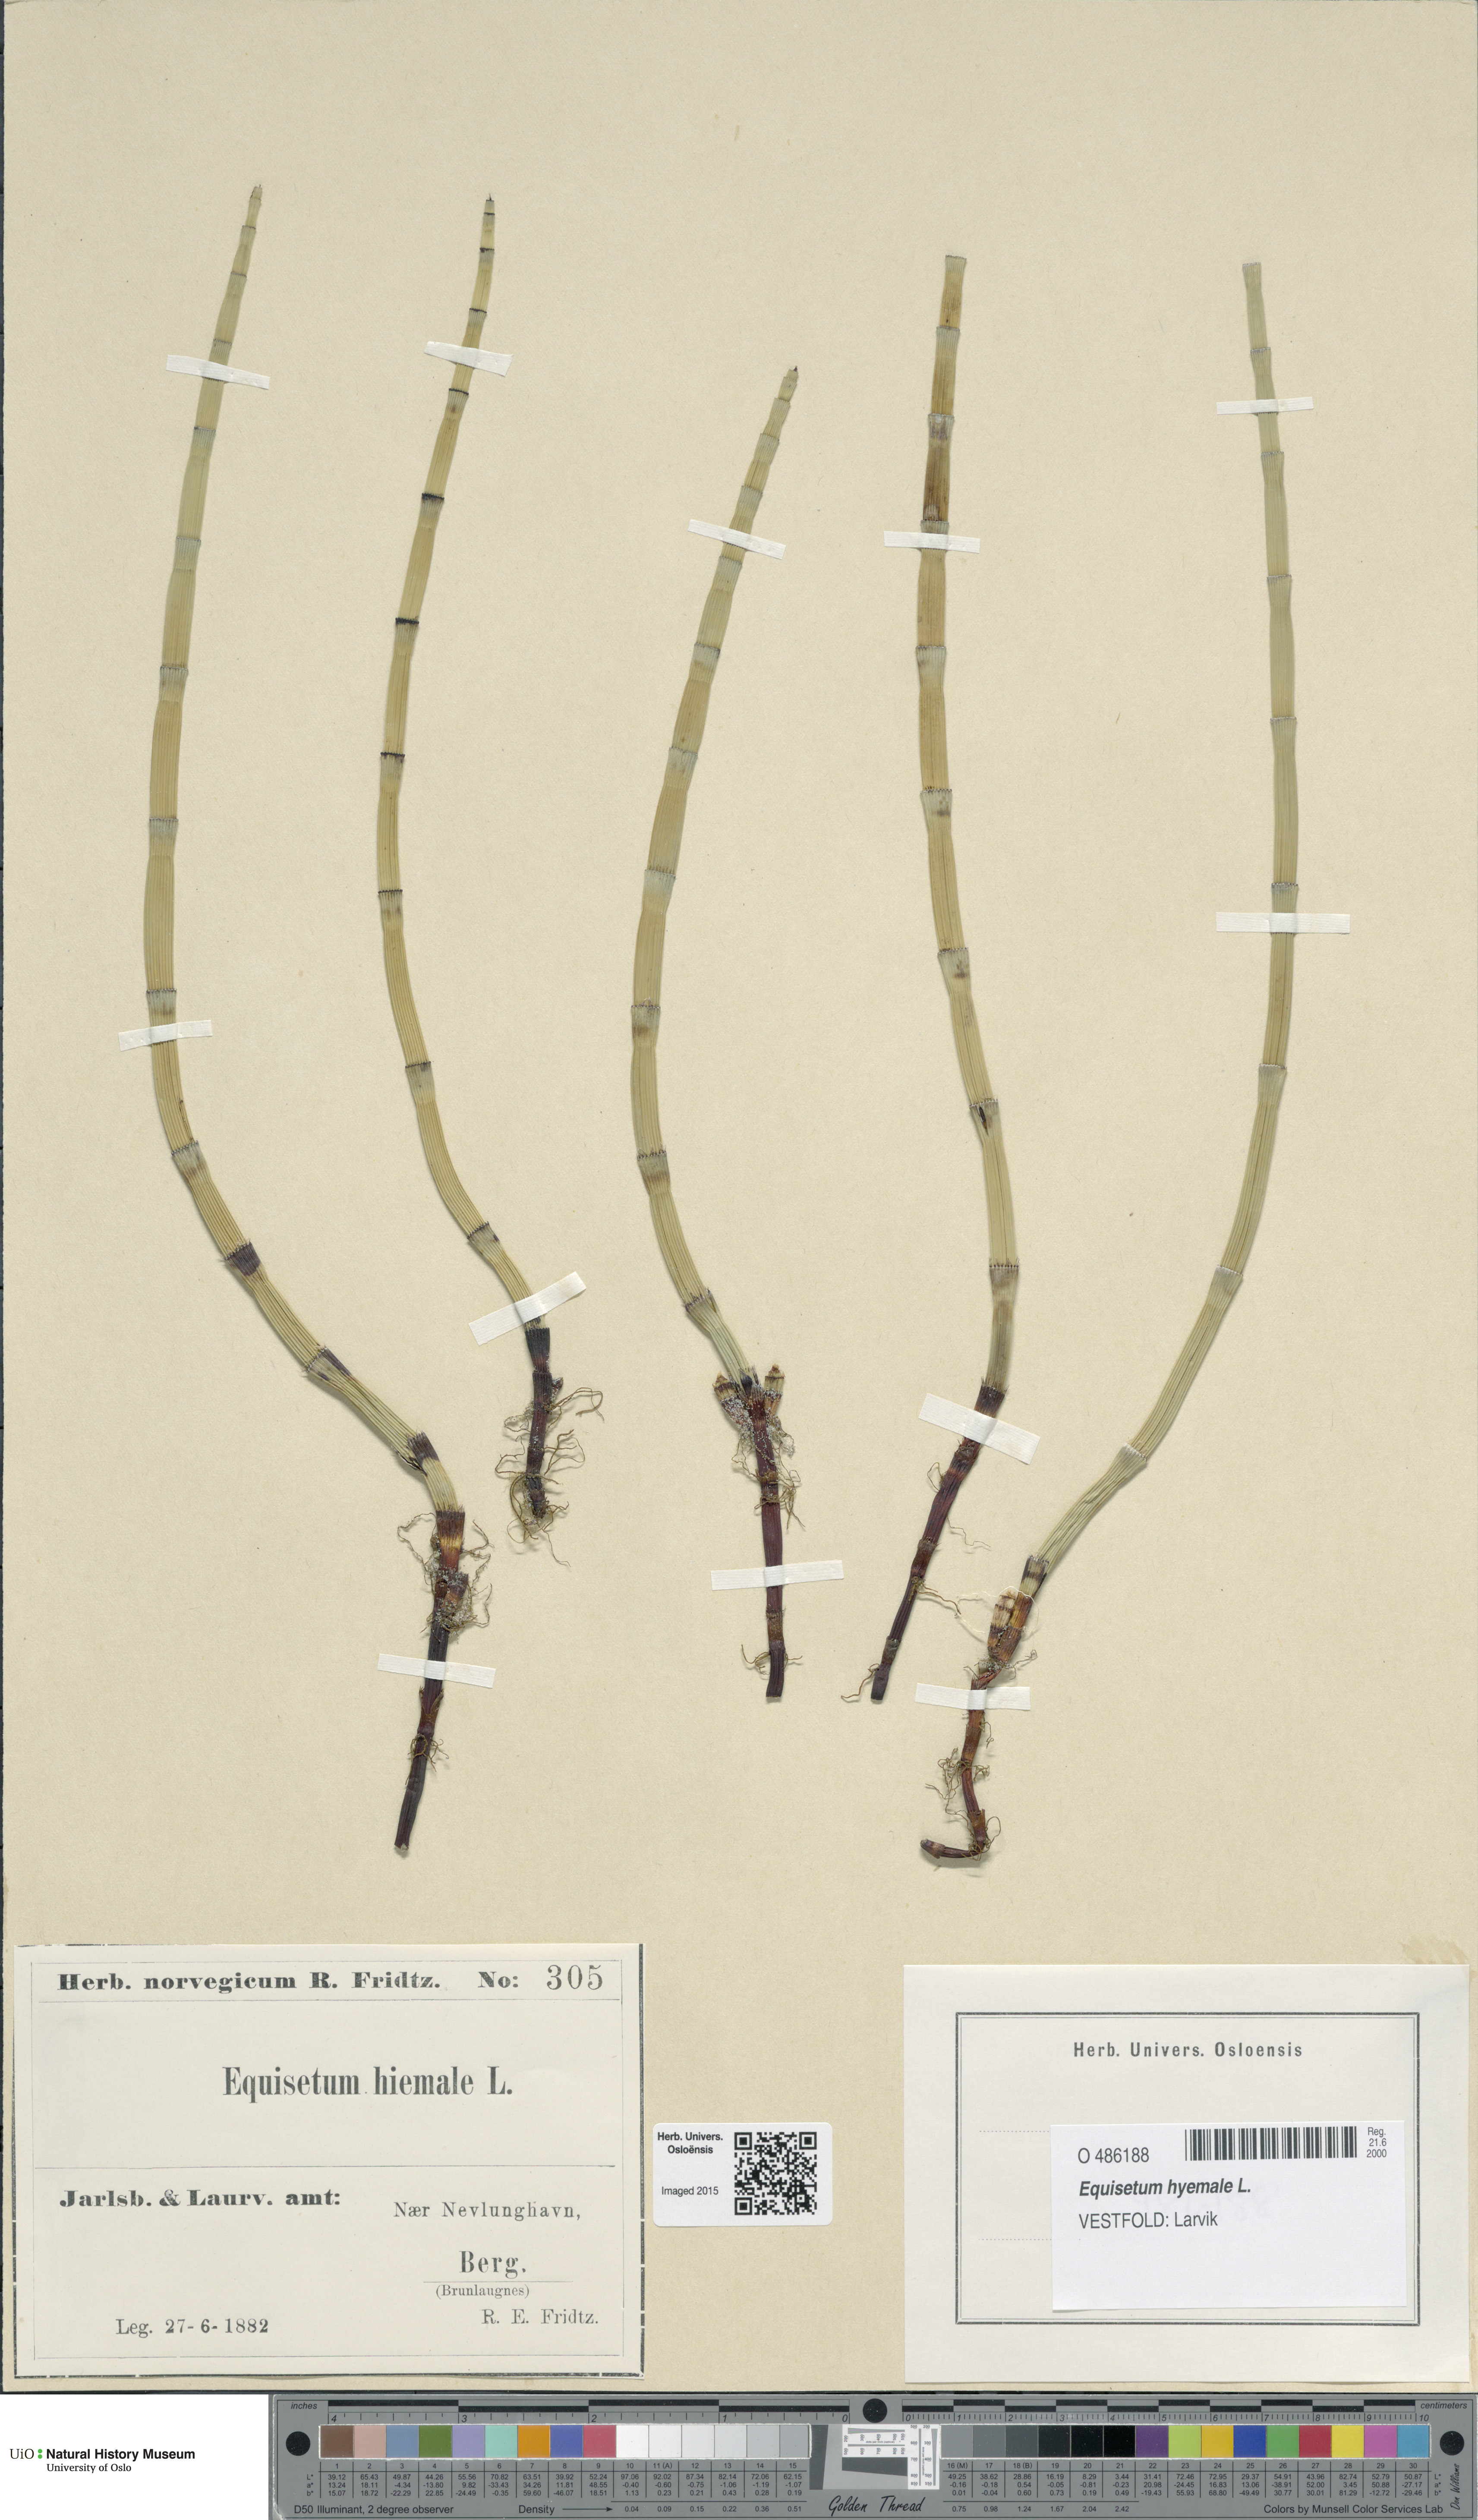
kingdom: Plantae
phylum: Tracheophyta
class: Polypodiopsida
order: Equisetales
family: Equisetaceae
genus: Equisetum
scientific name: Equisetum hyemale
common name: Rough horsetail
